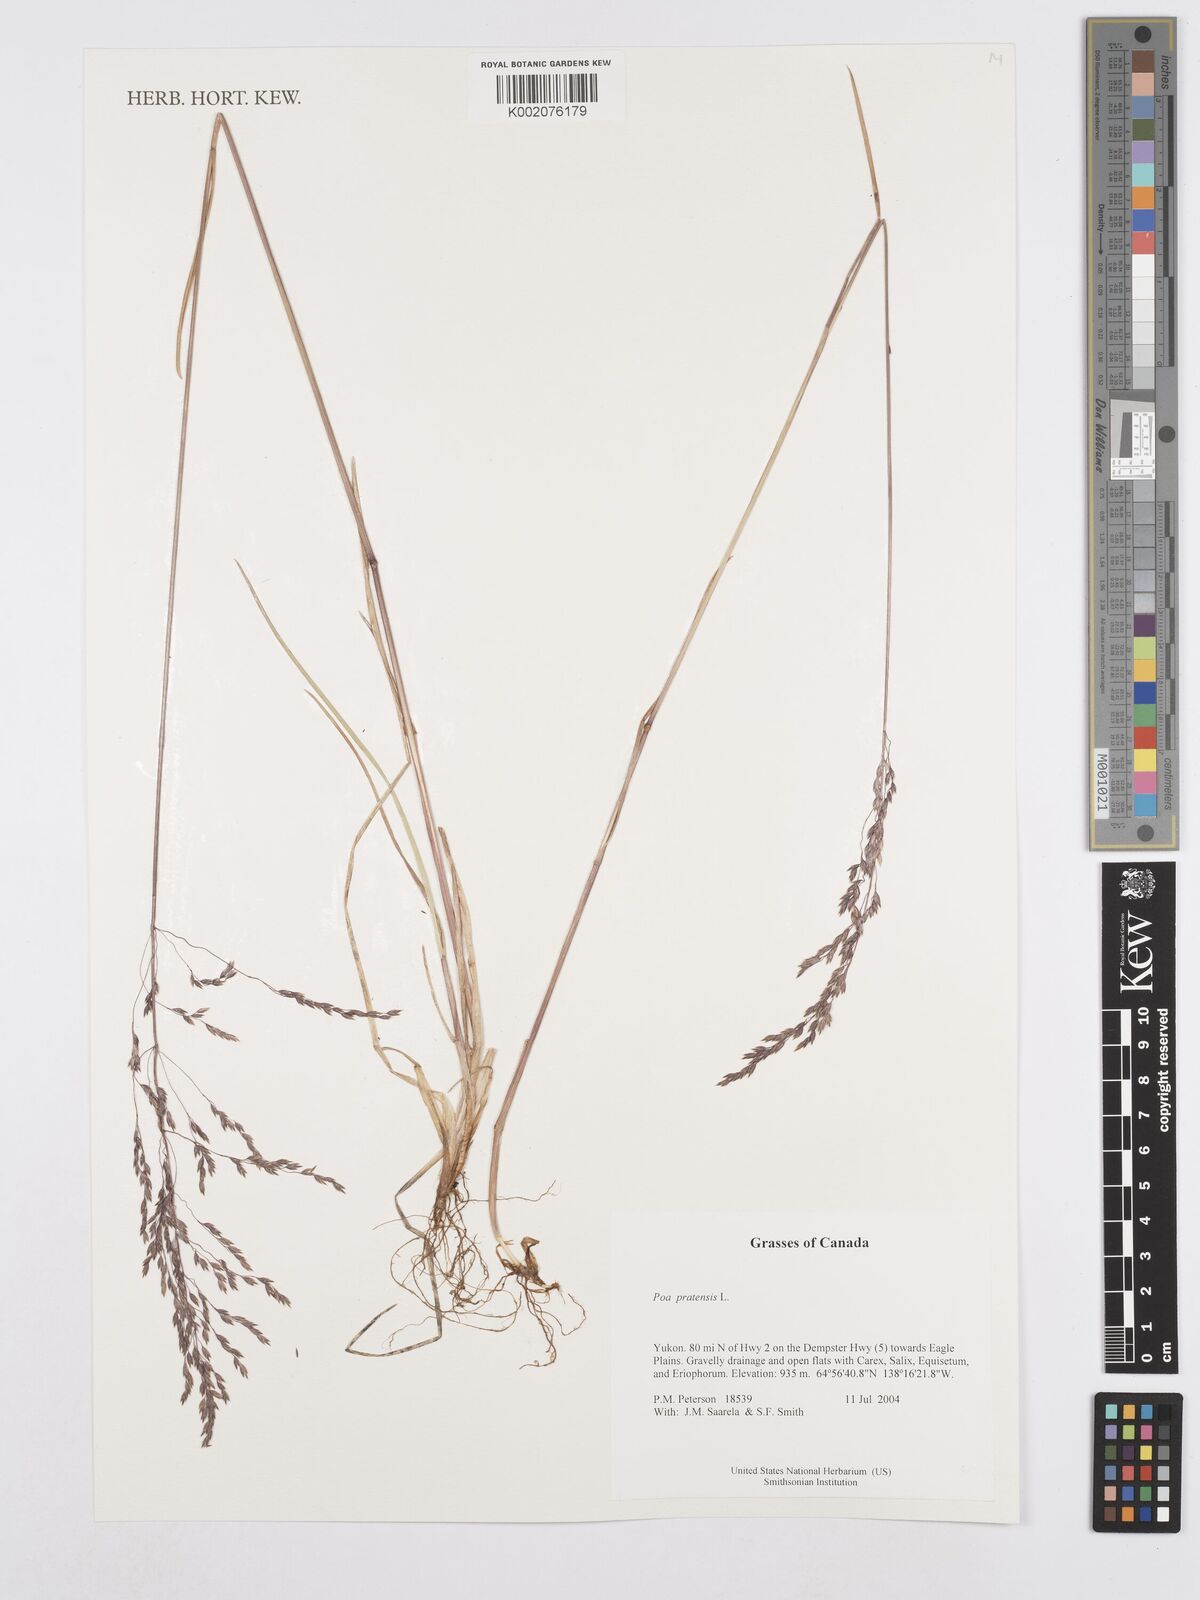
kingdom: Plantae
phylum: Tracheophyta
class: Liliopsida
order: Poales
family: Poaceae
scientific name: Poaceae
